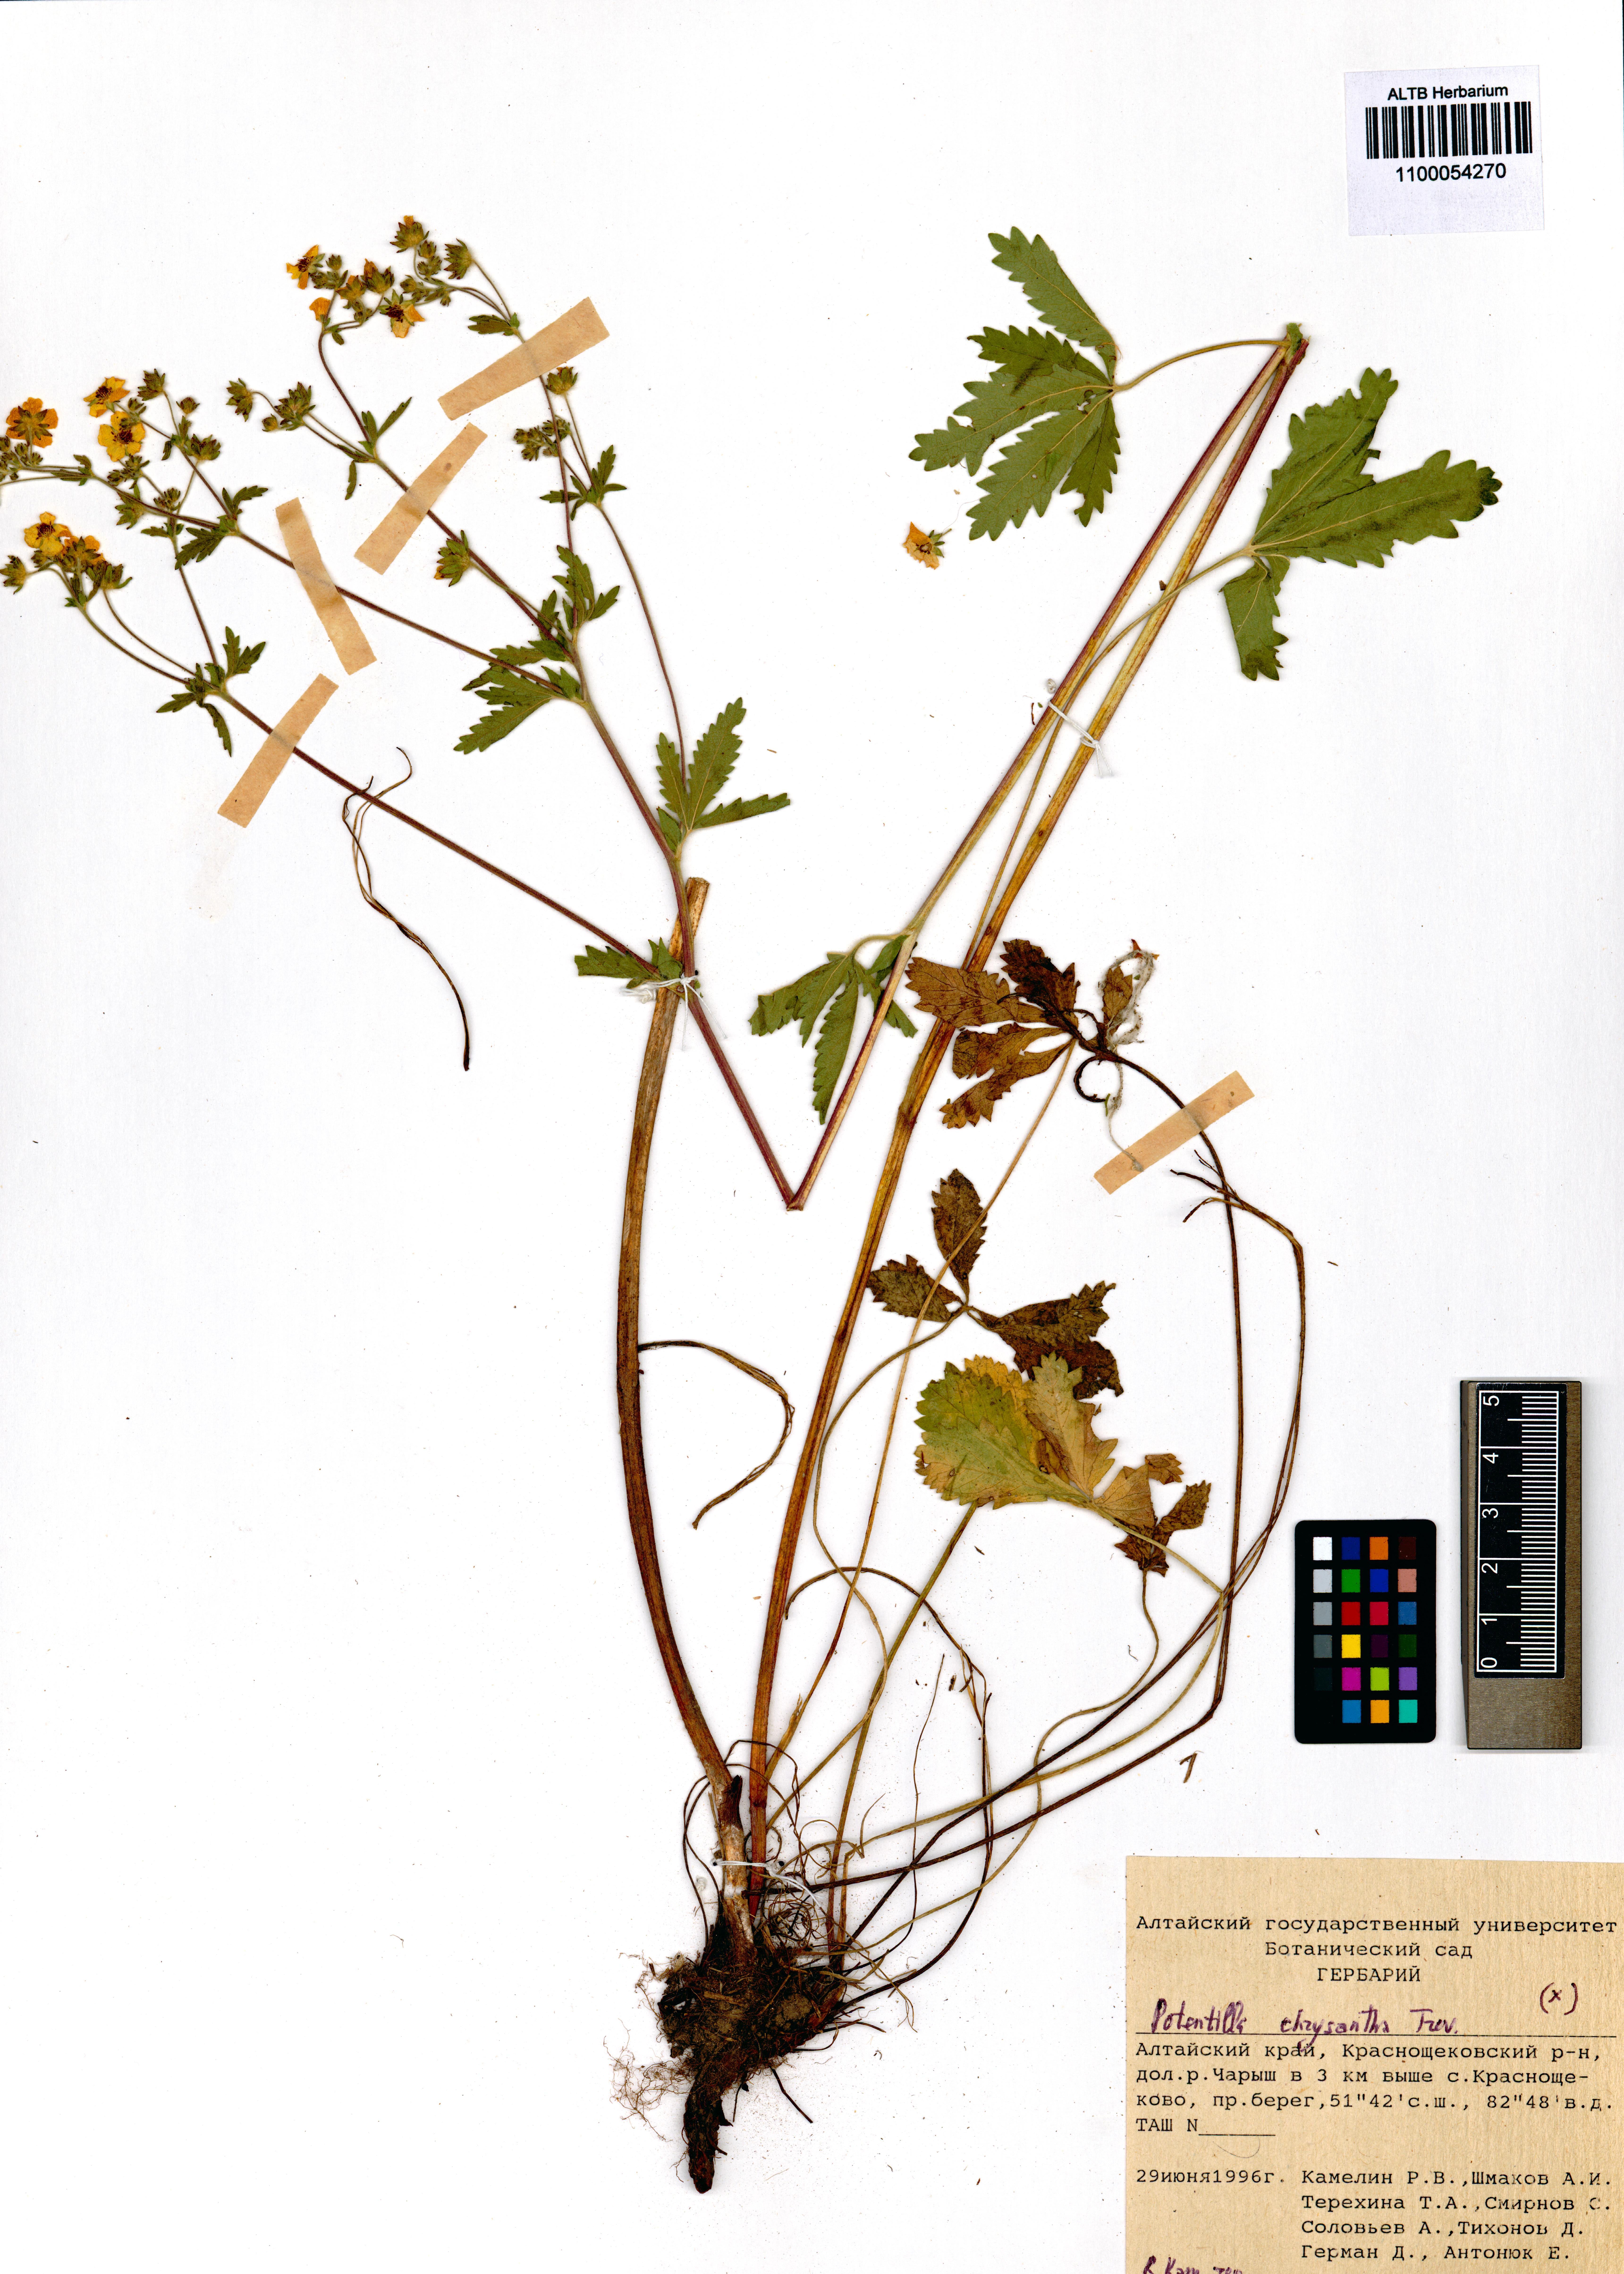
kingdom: Plantae
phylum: Tracheophyta
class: Magnoliopsida
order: Rosales
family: Rosaceae
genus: Potentilla
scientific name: Potentilla chrysantha
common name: Thuringian cinquefoil
